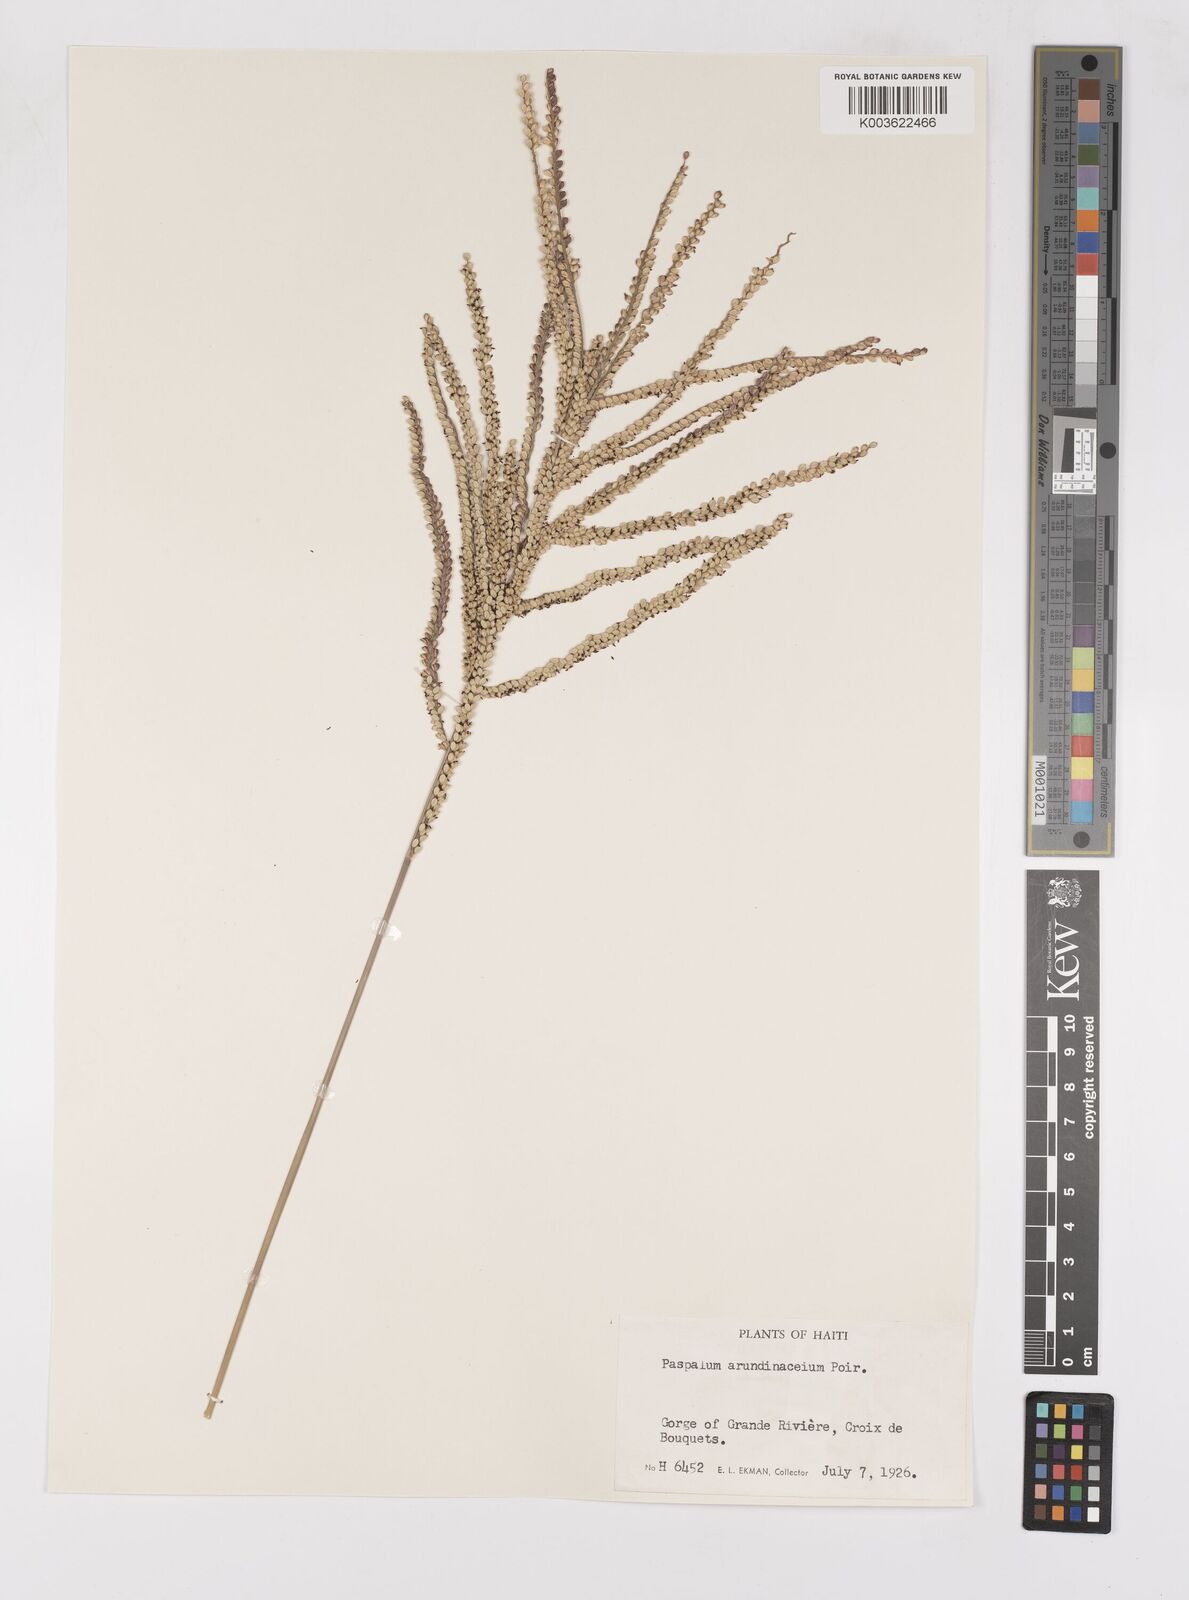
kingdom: Plantae
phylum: Tracheophyta
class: Liliopsida
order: Poales
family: Poaceae
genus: Paspalum
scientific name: Paspalum arundinaceum
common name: Thick ditch crowngrass
